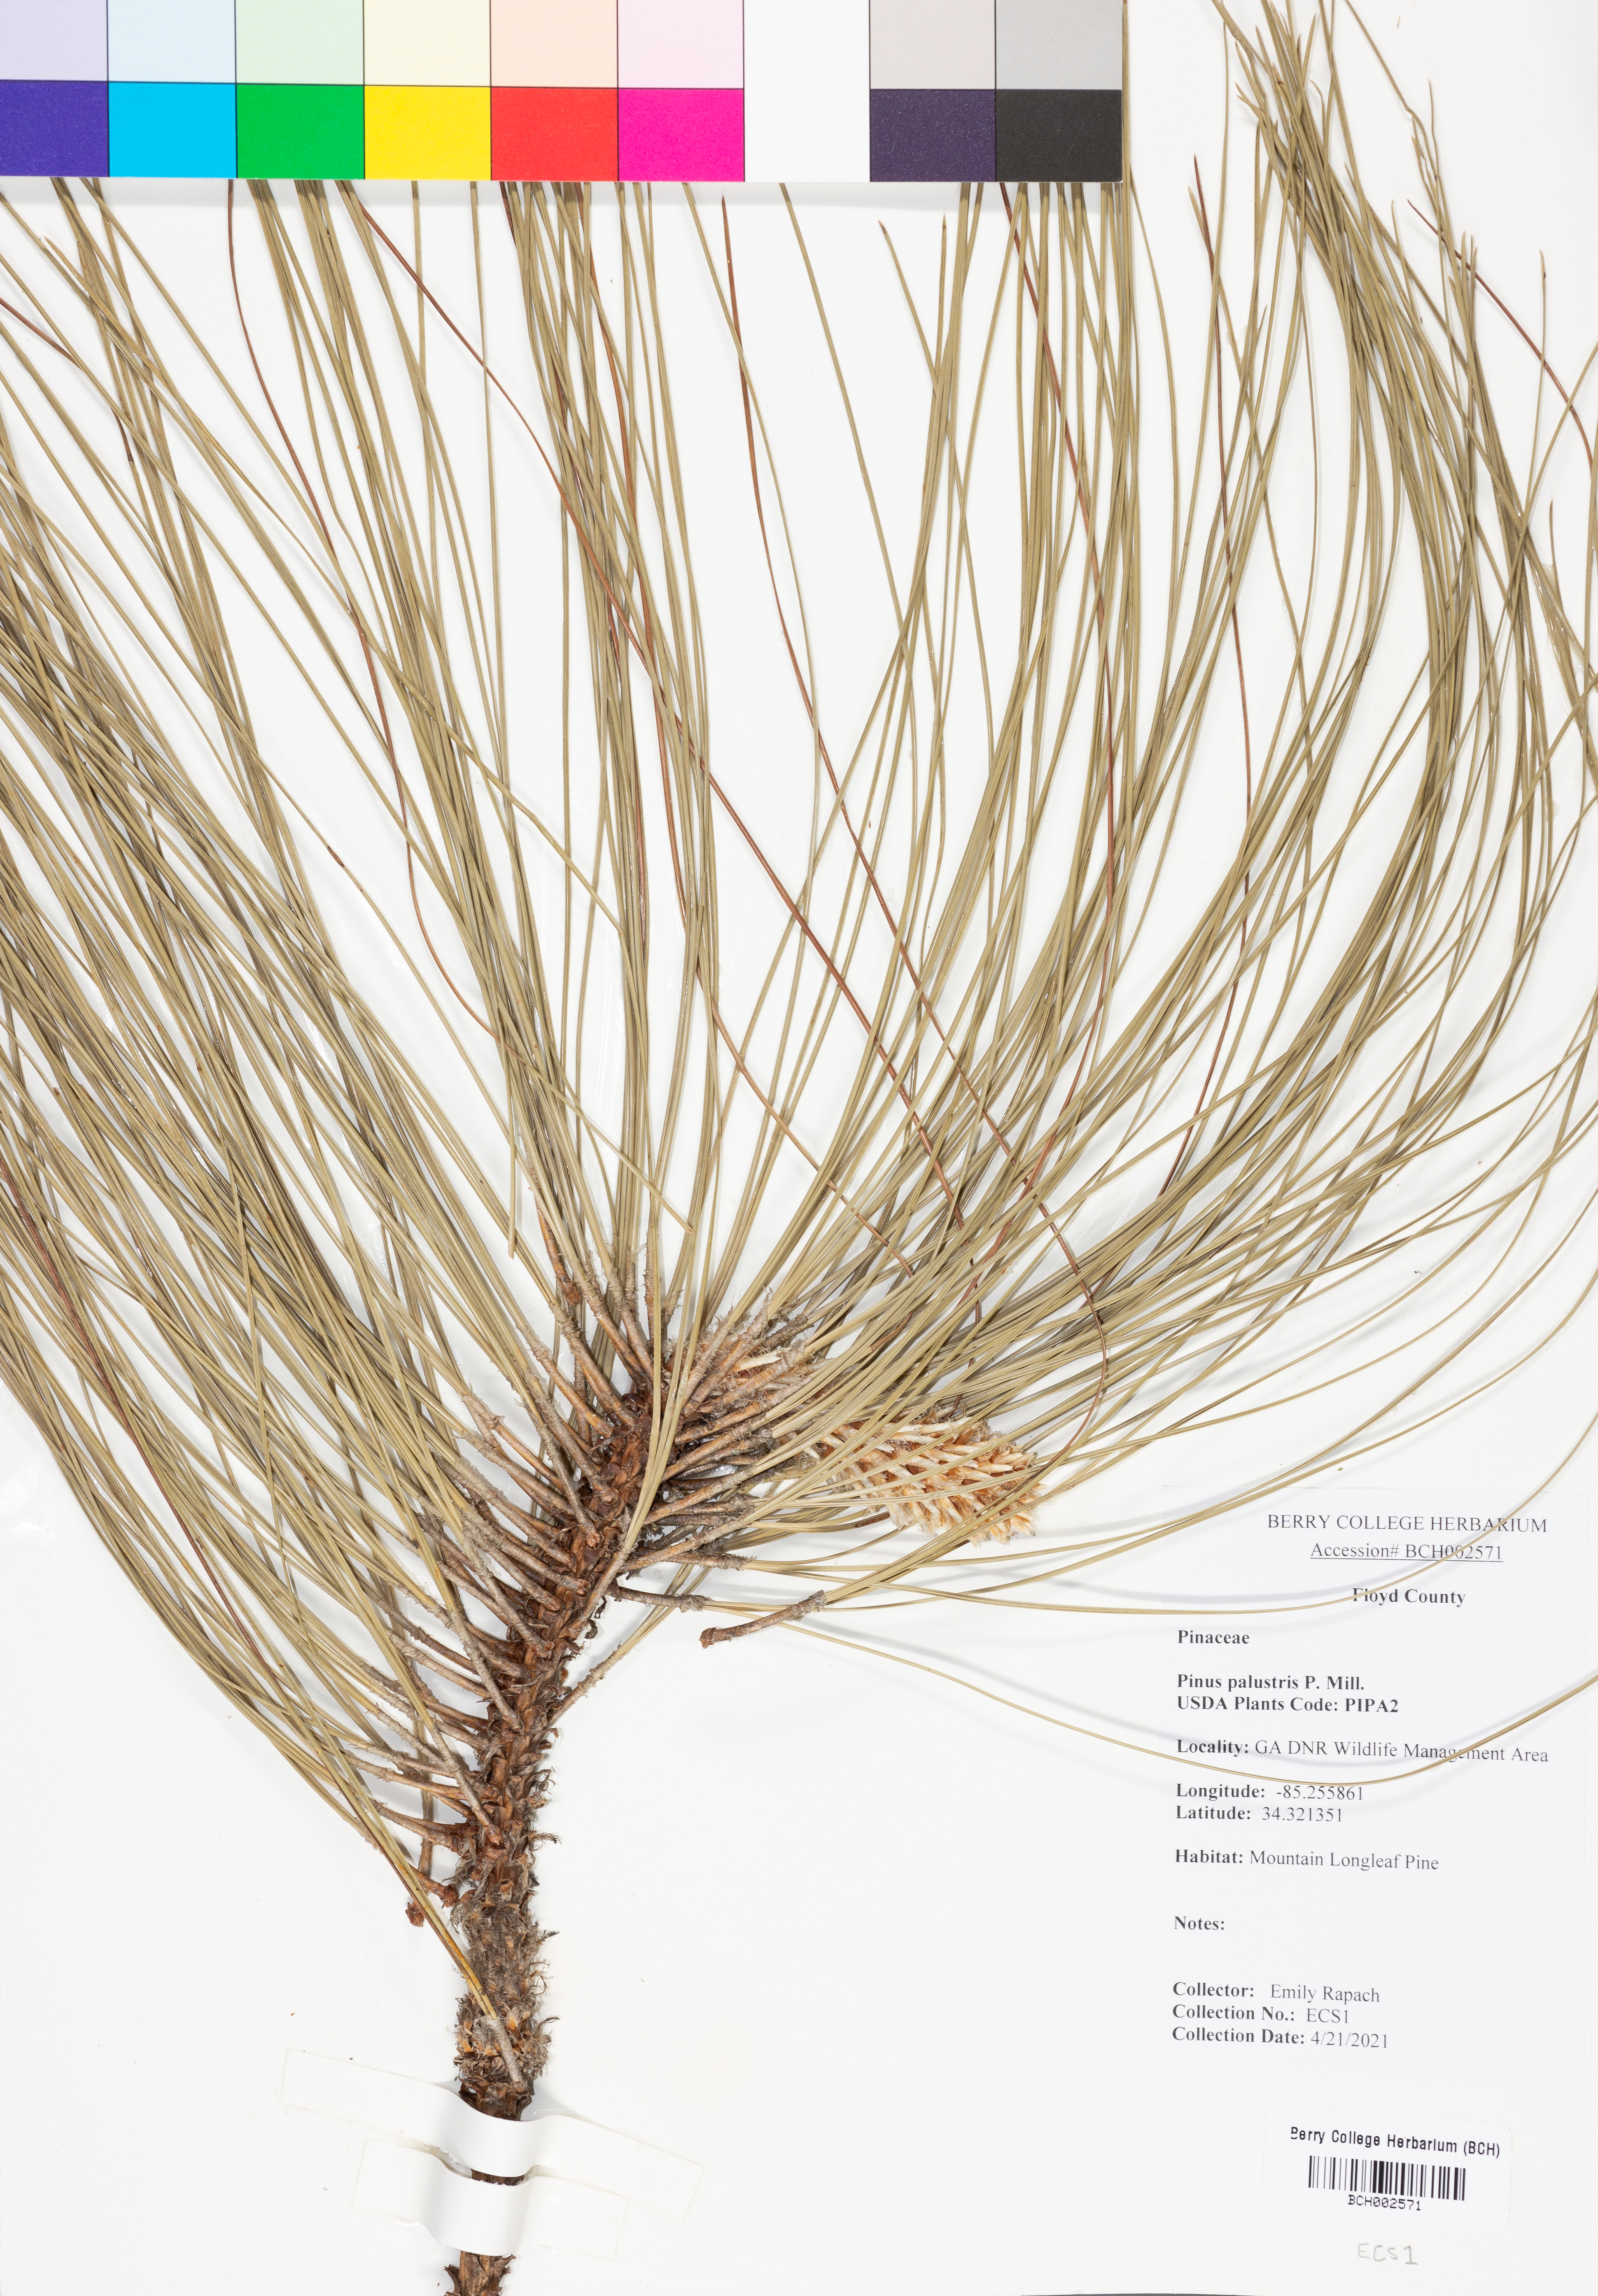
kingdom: Plantae
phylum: Tracheophyta
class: Pinopsida
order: Pinales
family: Pinaceae
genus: Pinus
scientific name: Pinus palustris
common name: Longleaf pine
